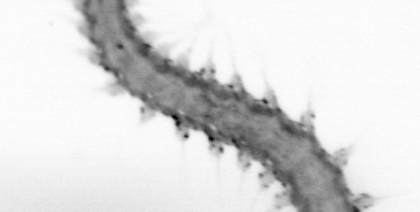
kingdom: Animalia
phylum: Arthropoda
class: Copepoda
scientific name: Copepoda
